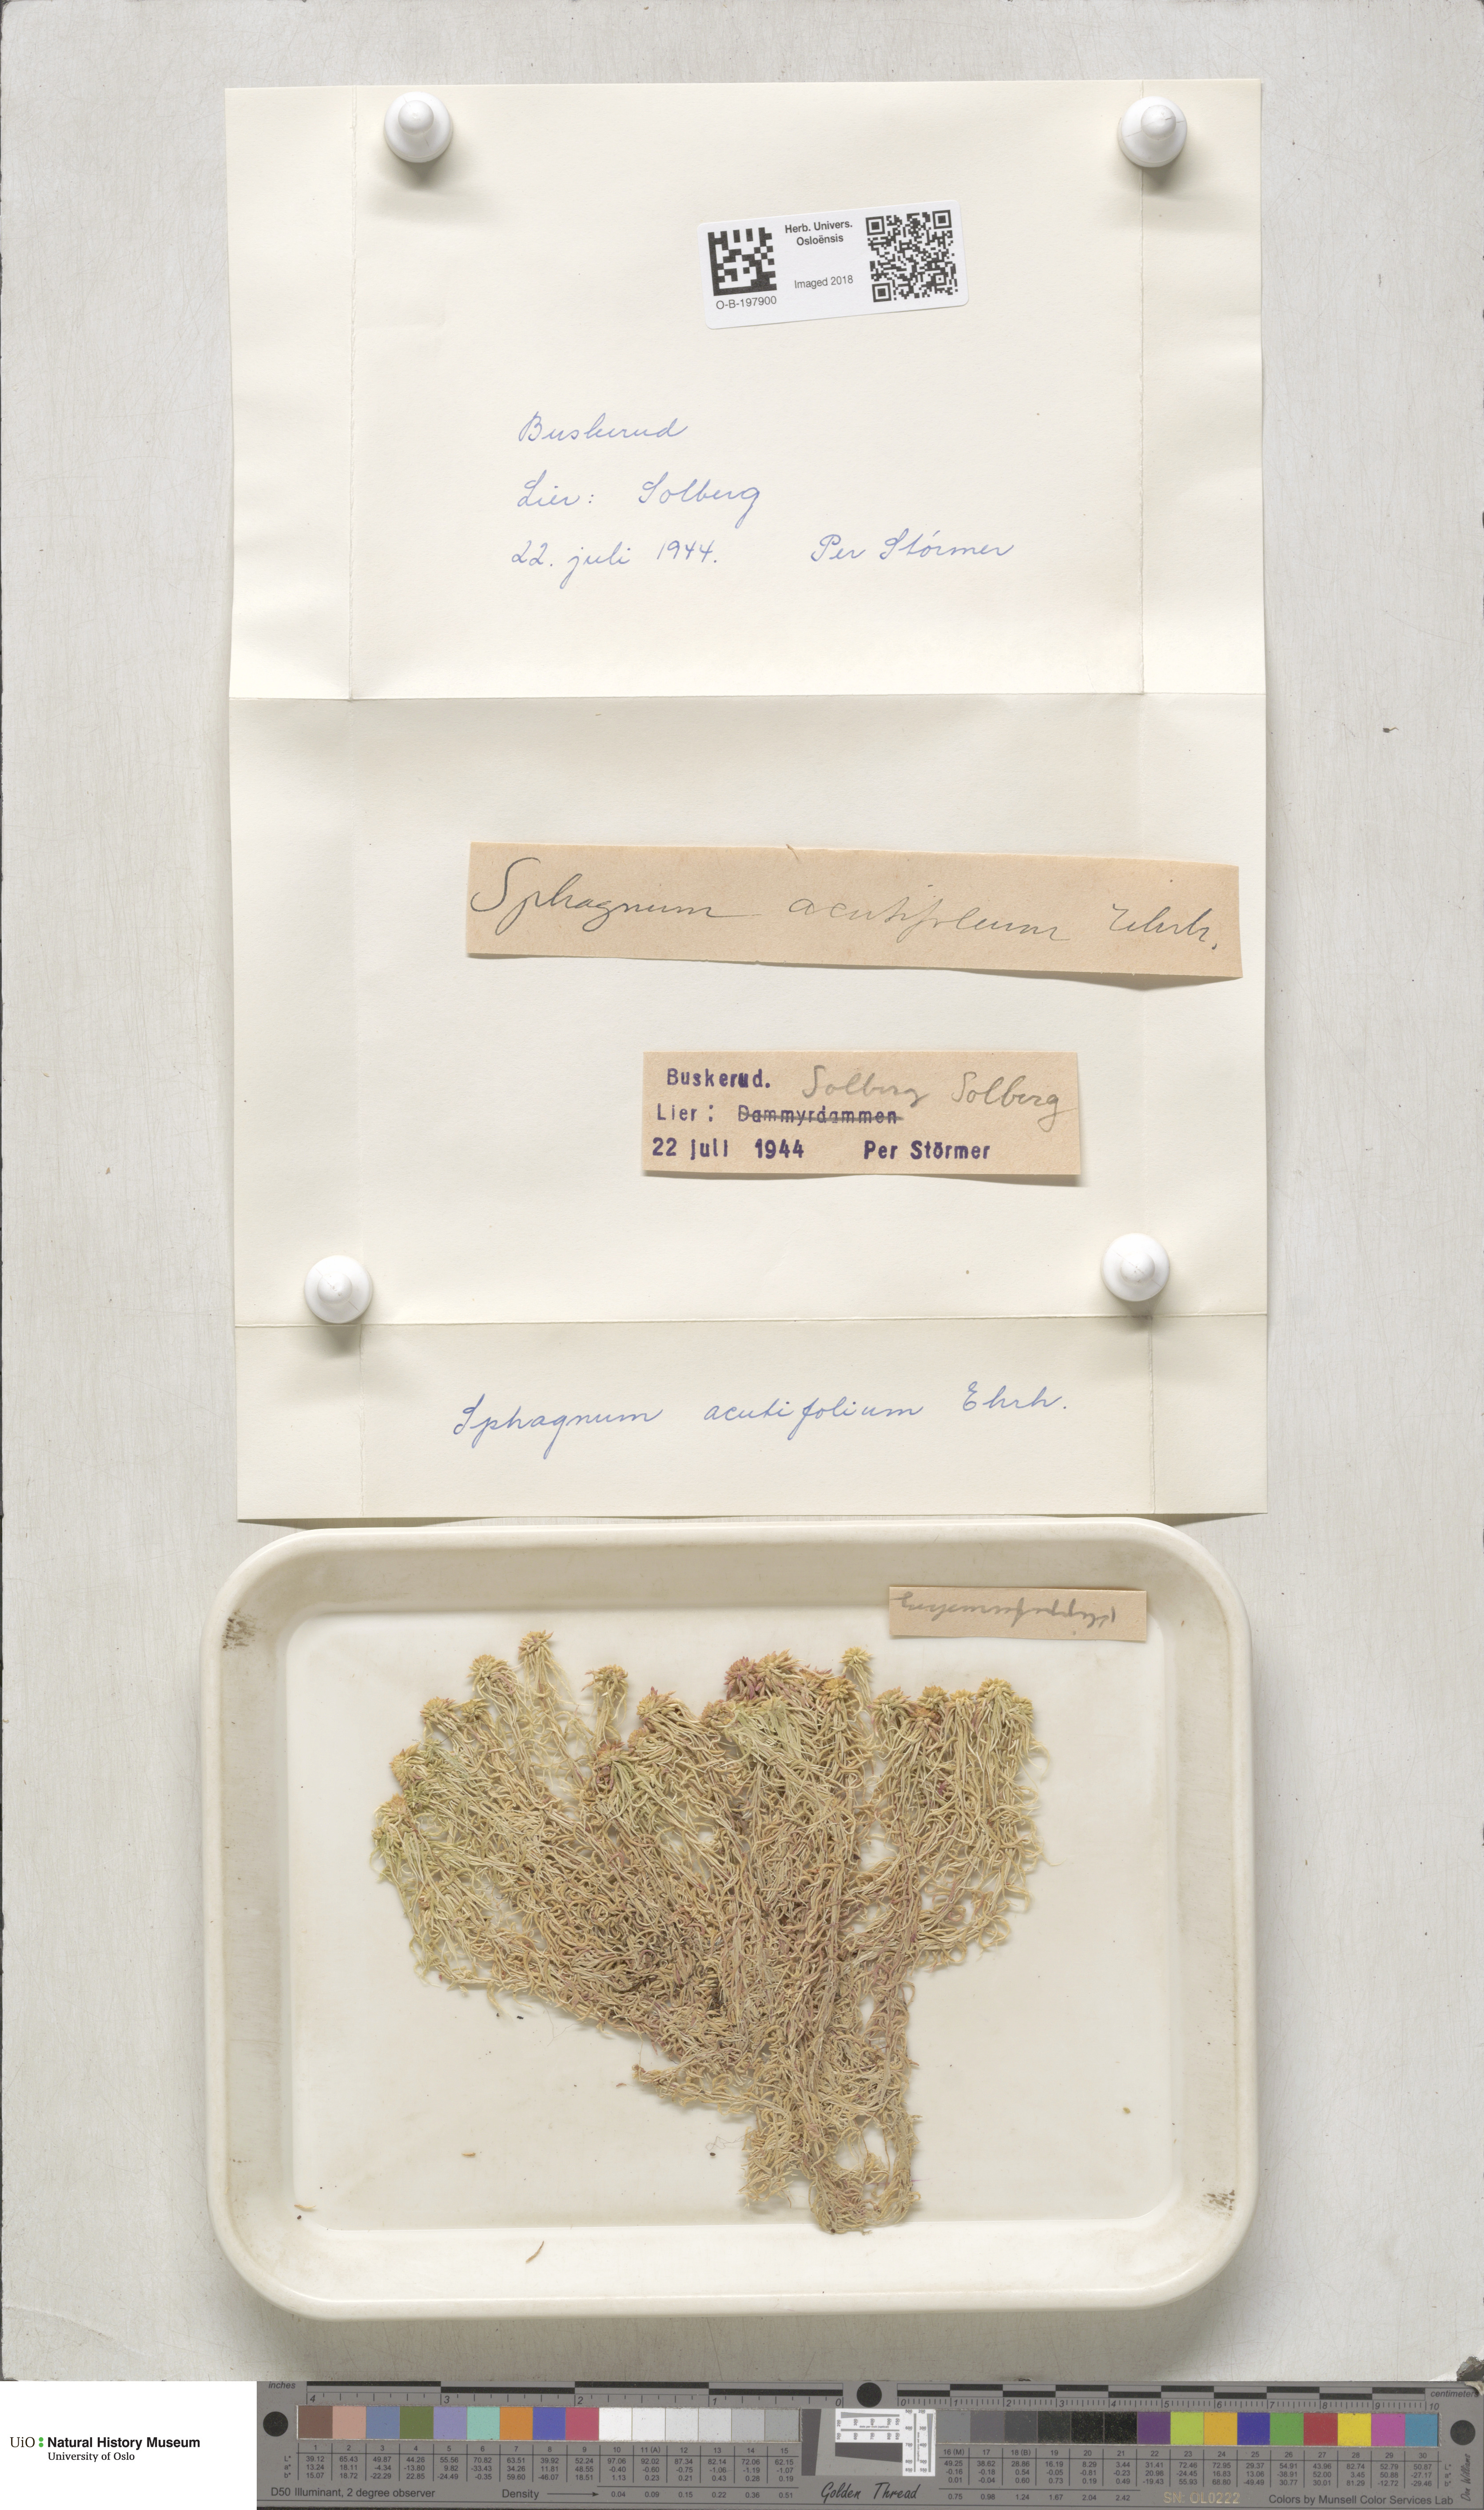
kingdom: Plantae
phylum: Bryophyta
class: Sphagnopsida
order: Sphagnales
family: Sphagnaceae
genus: Sphagnum
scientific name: Sphagnum capillifolium
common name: Small red peat moss
